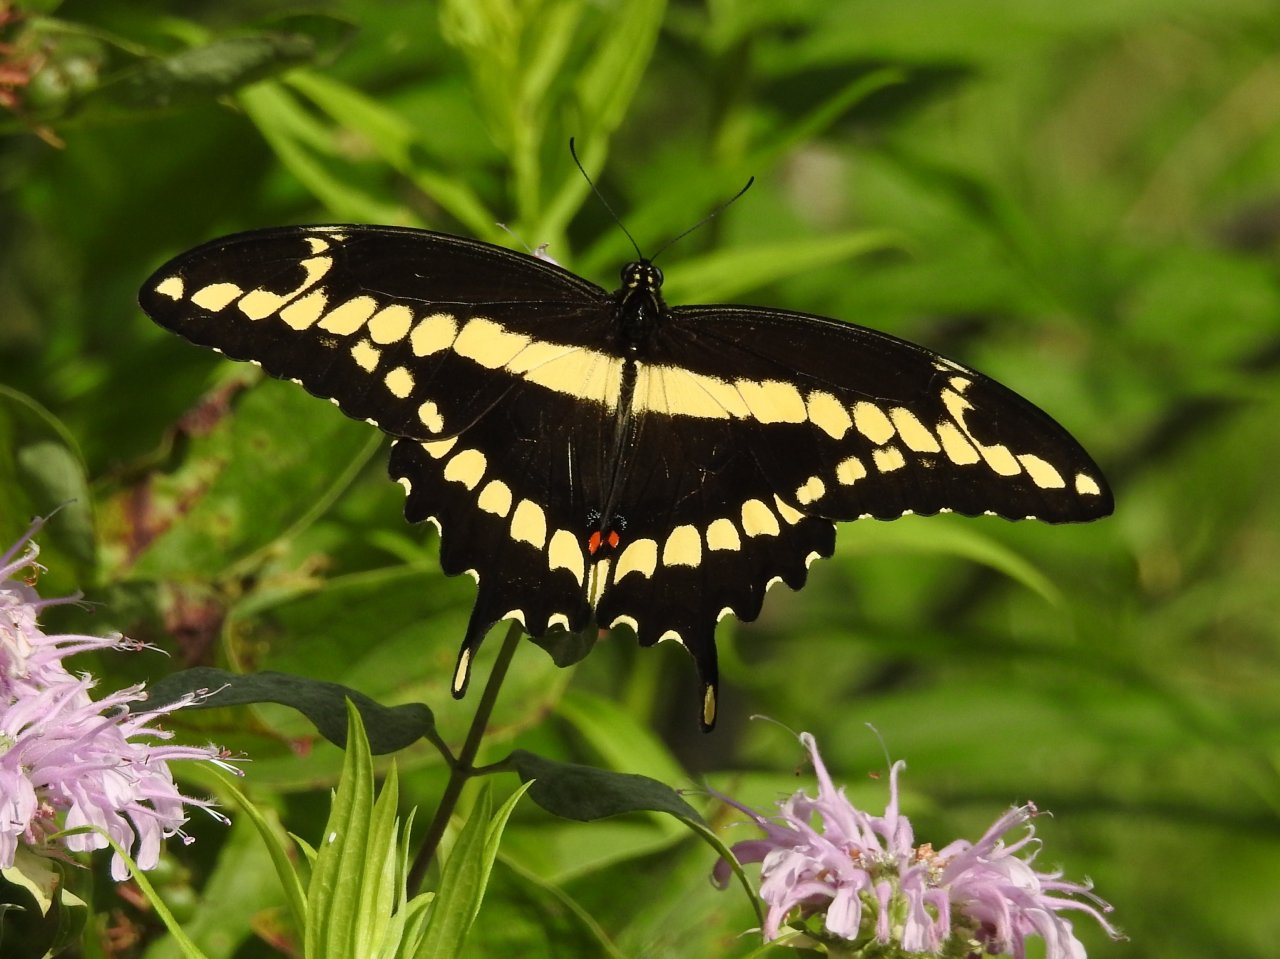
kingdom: Animalia
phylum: Arthropoda
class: Insecta
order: Lepidoptera
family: Papilionidae
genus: Papilio
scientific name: Papilio cresphontes
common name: Eastern Giant Swallowtail
